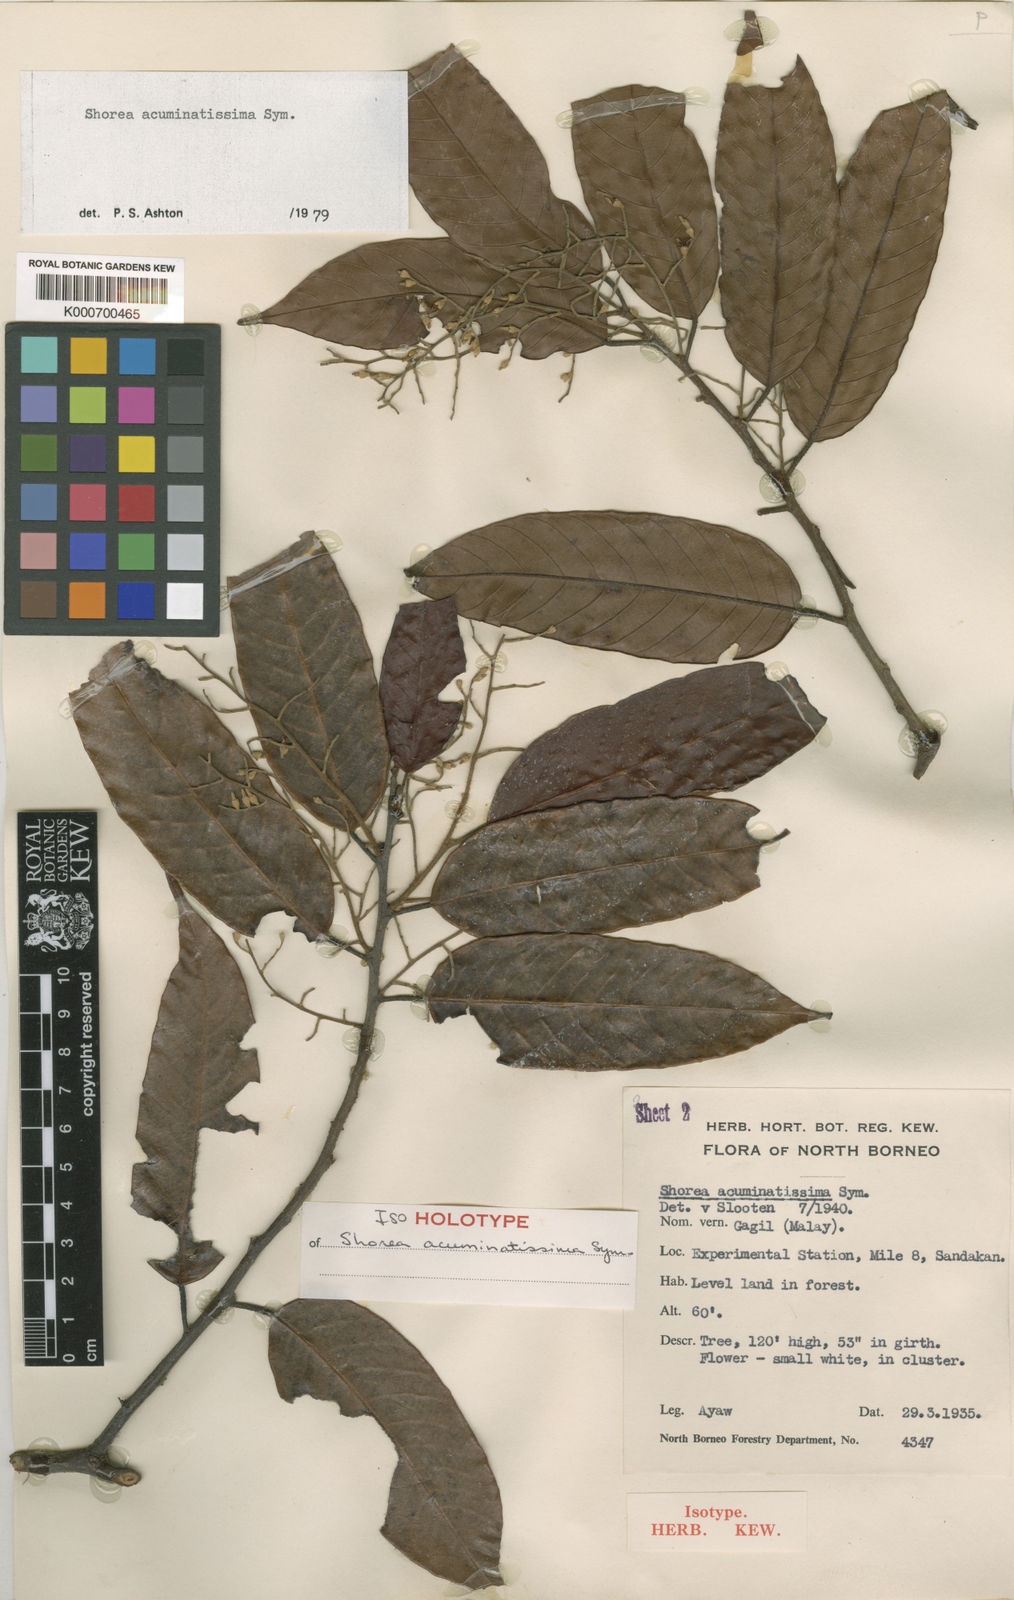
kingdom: Plantae
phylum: Tracheophyta
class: Magnoliopsida
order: Malvales
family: Dipterocarpaceae
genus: Shorea
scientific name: Shorea acuminatissima
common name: Yellow meranti
